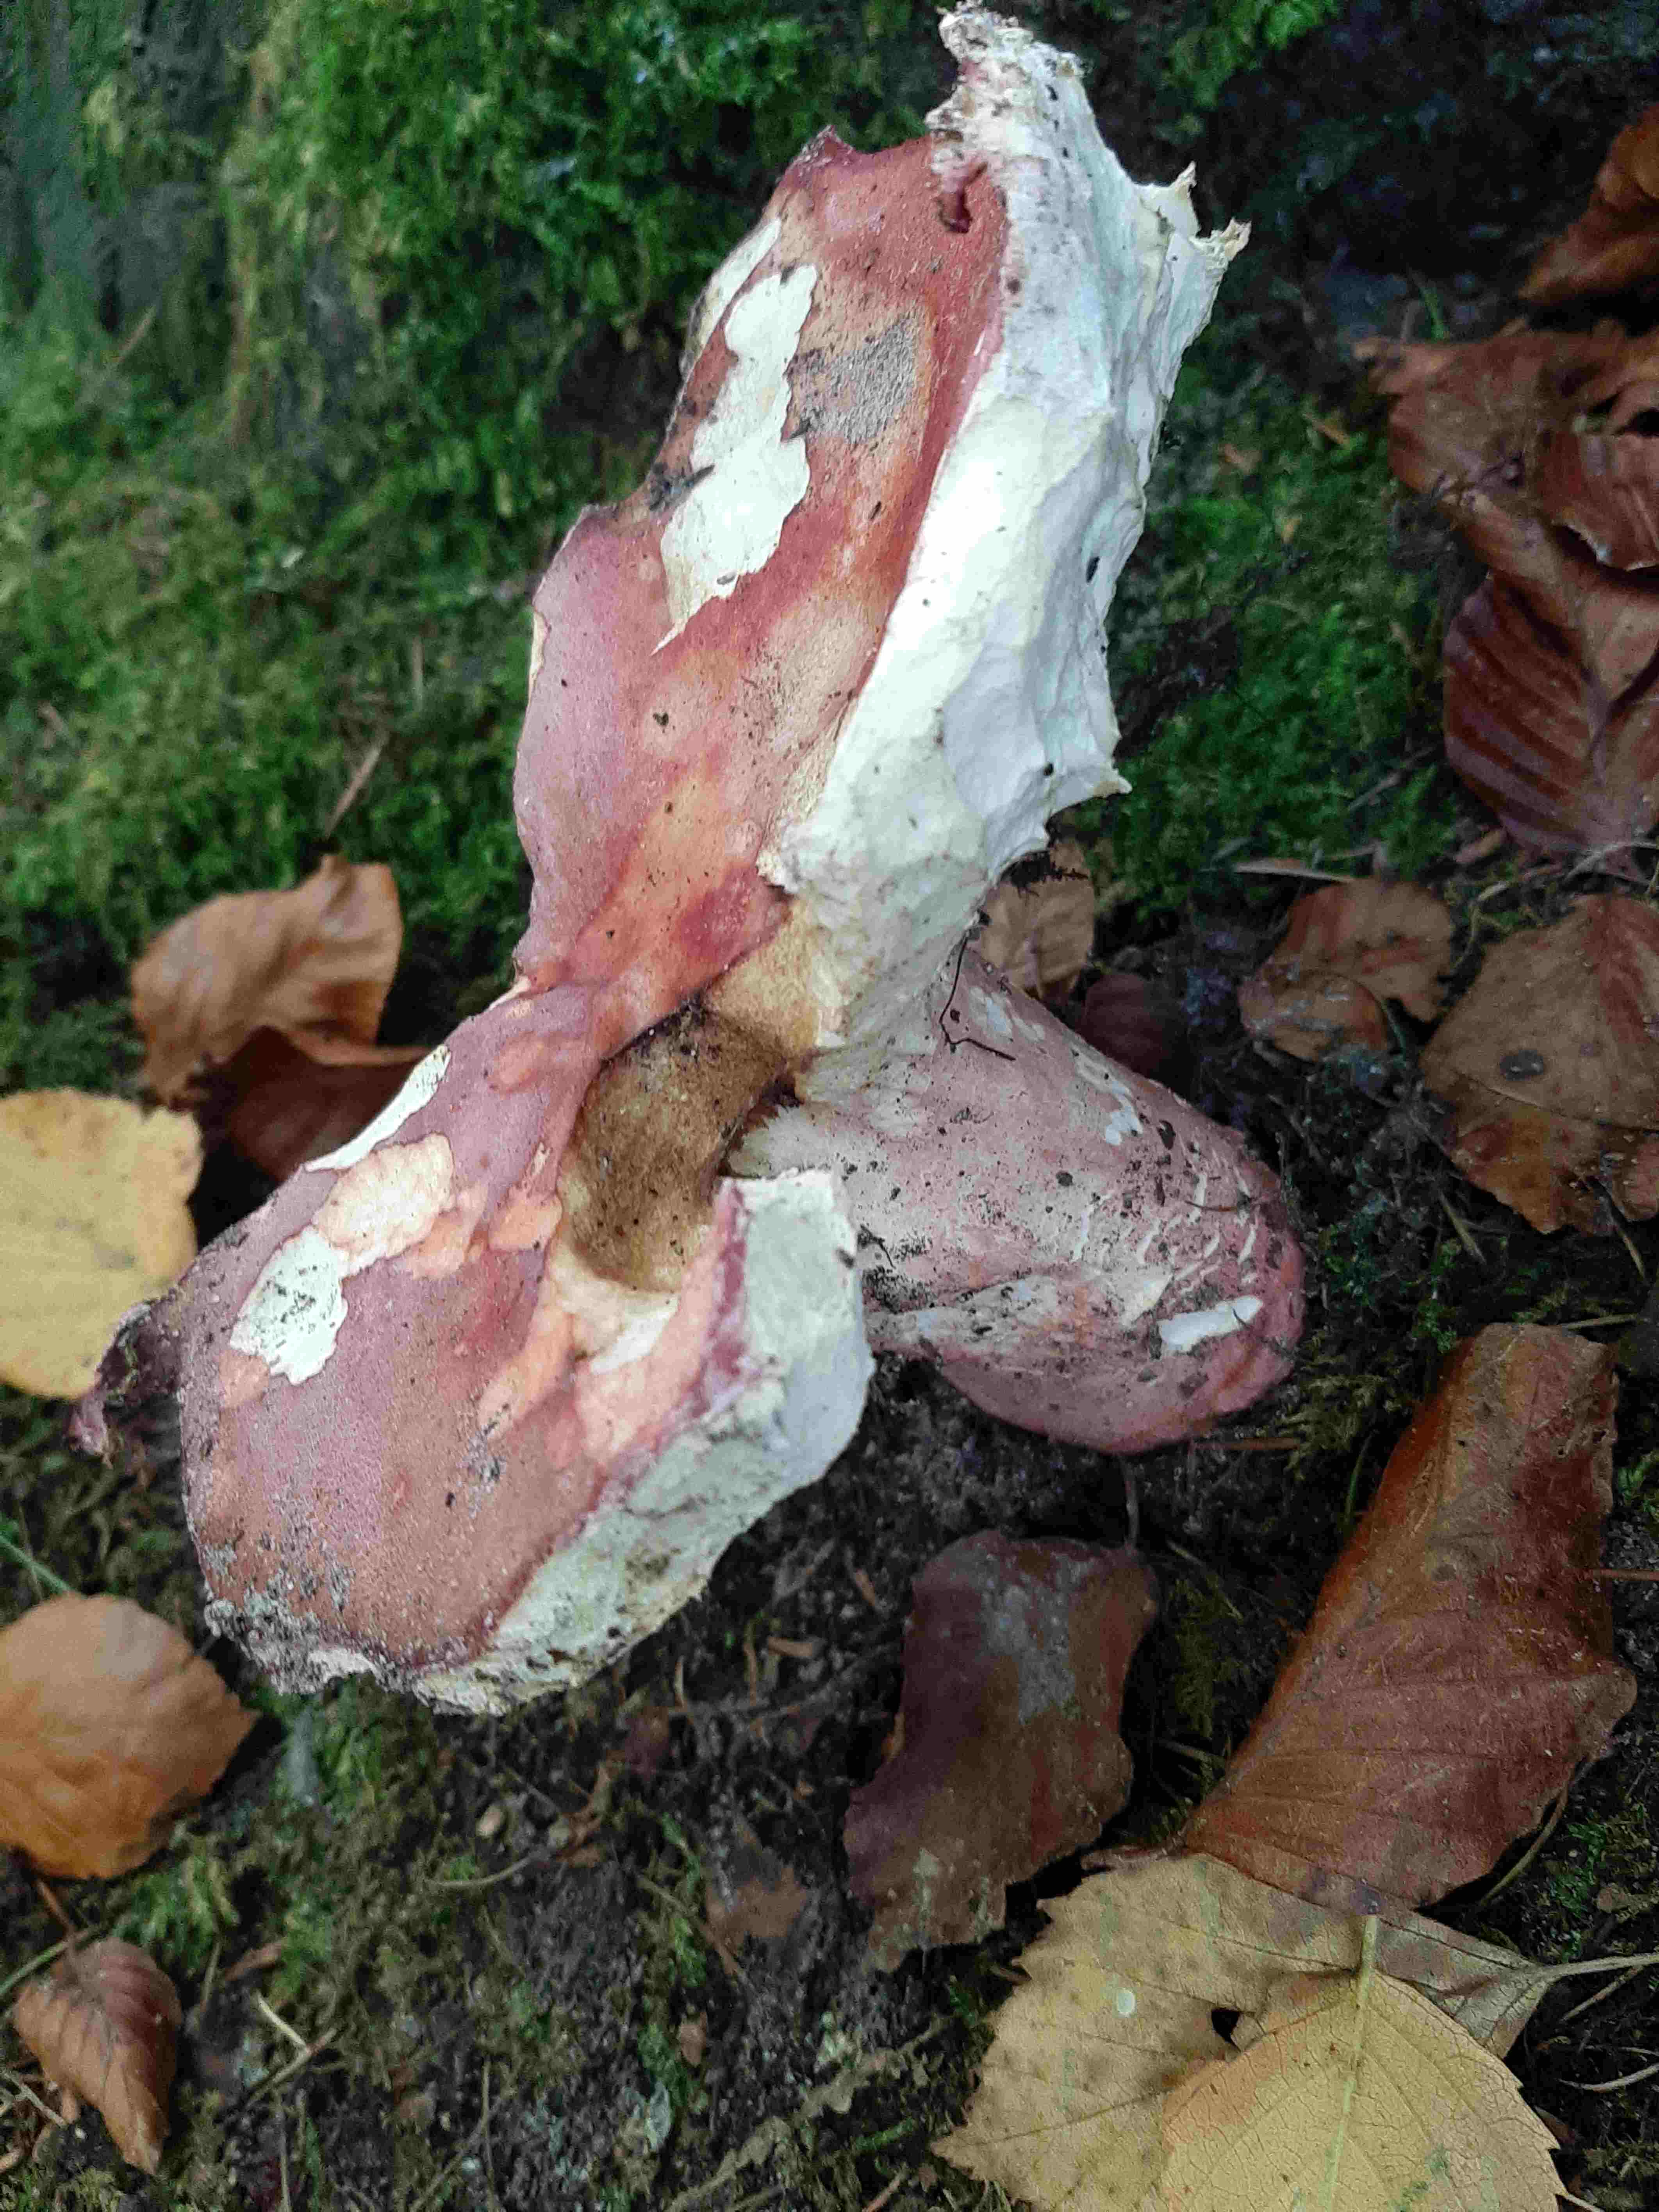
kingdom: Fungi
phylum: Basidiomycota
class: Agaricomycetes
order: Russulales
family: Russulaceae
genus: Russula
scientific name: Russula rosea
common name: fastkødet skørhat
